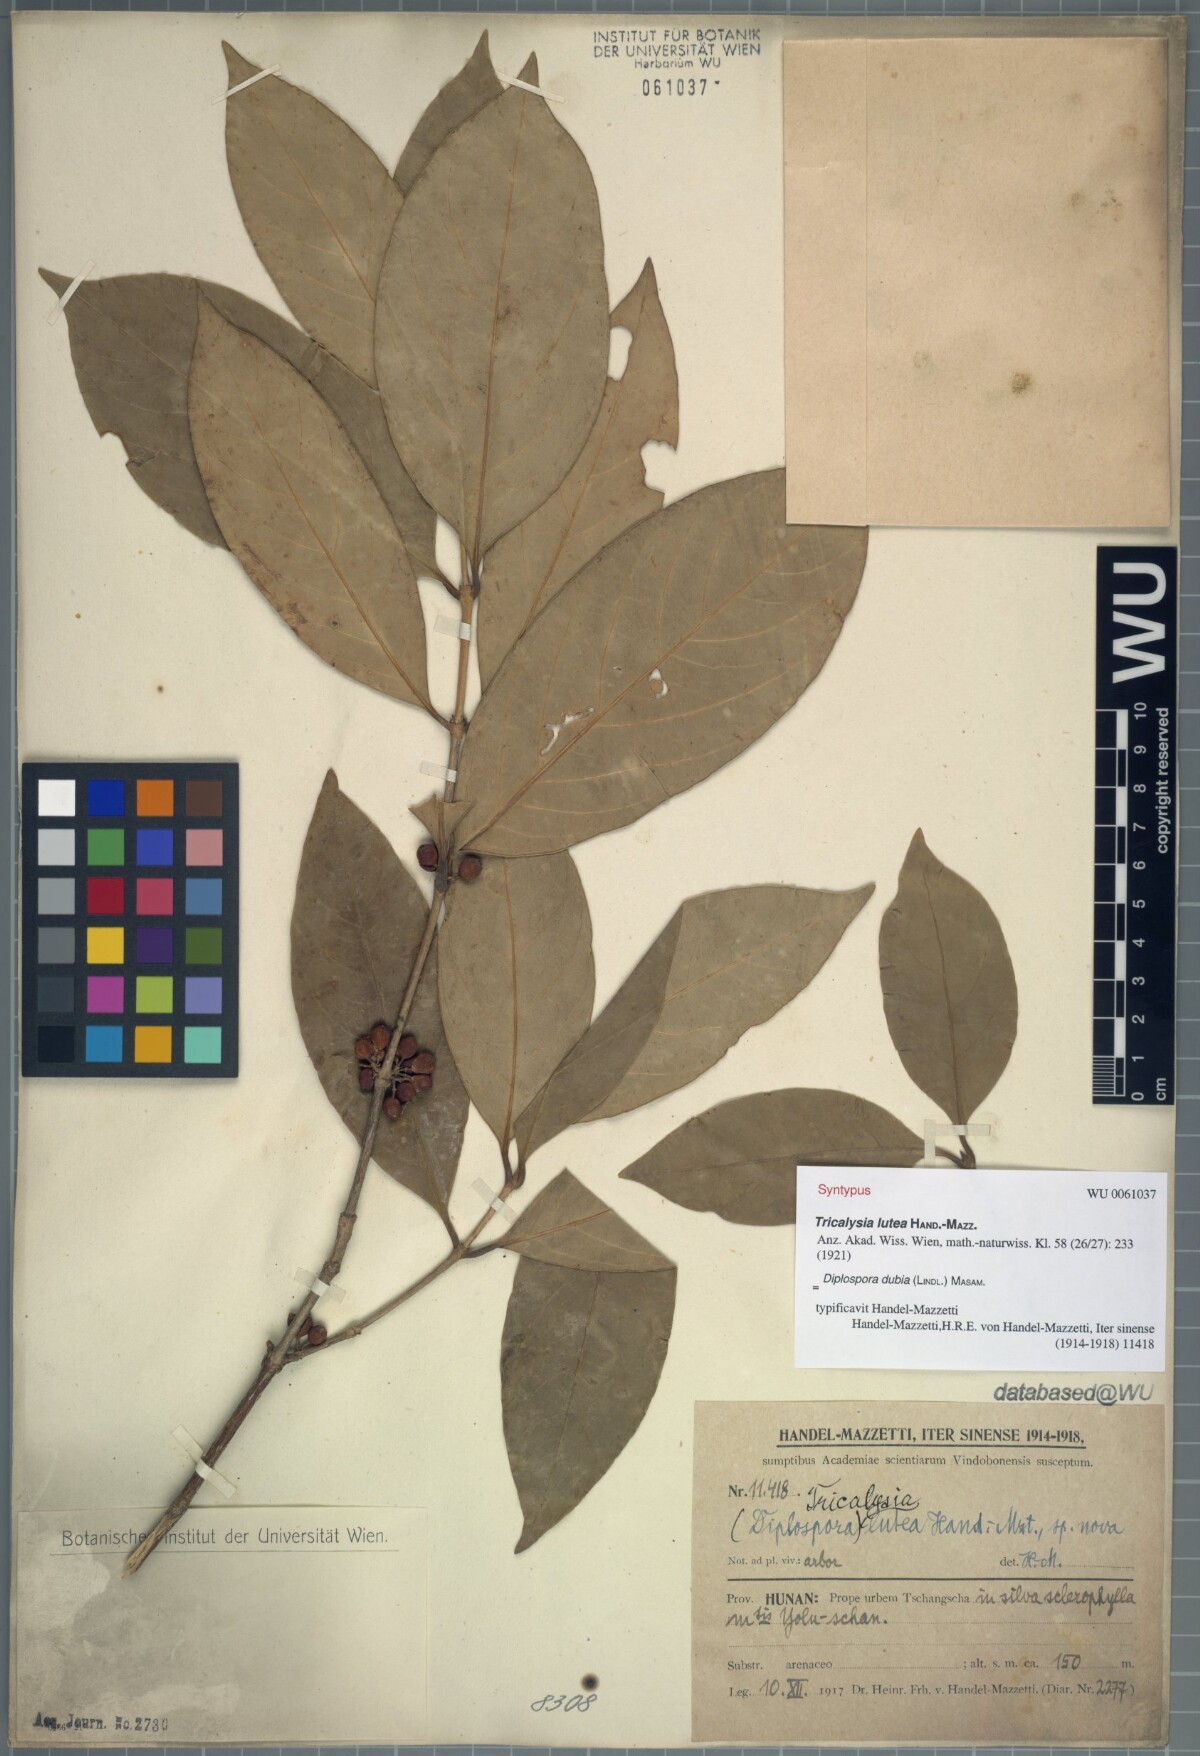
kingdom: Plantae
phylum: Tracheophyta
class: Magnoliopsida
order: Gentianales
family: Rubiaceae
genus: Diplospora
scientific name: Diplospora dubia
